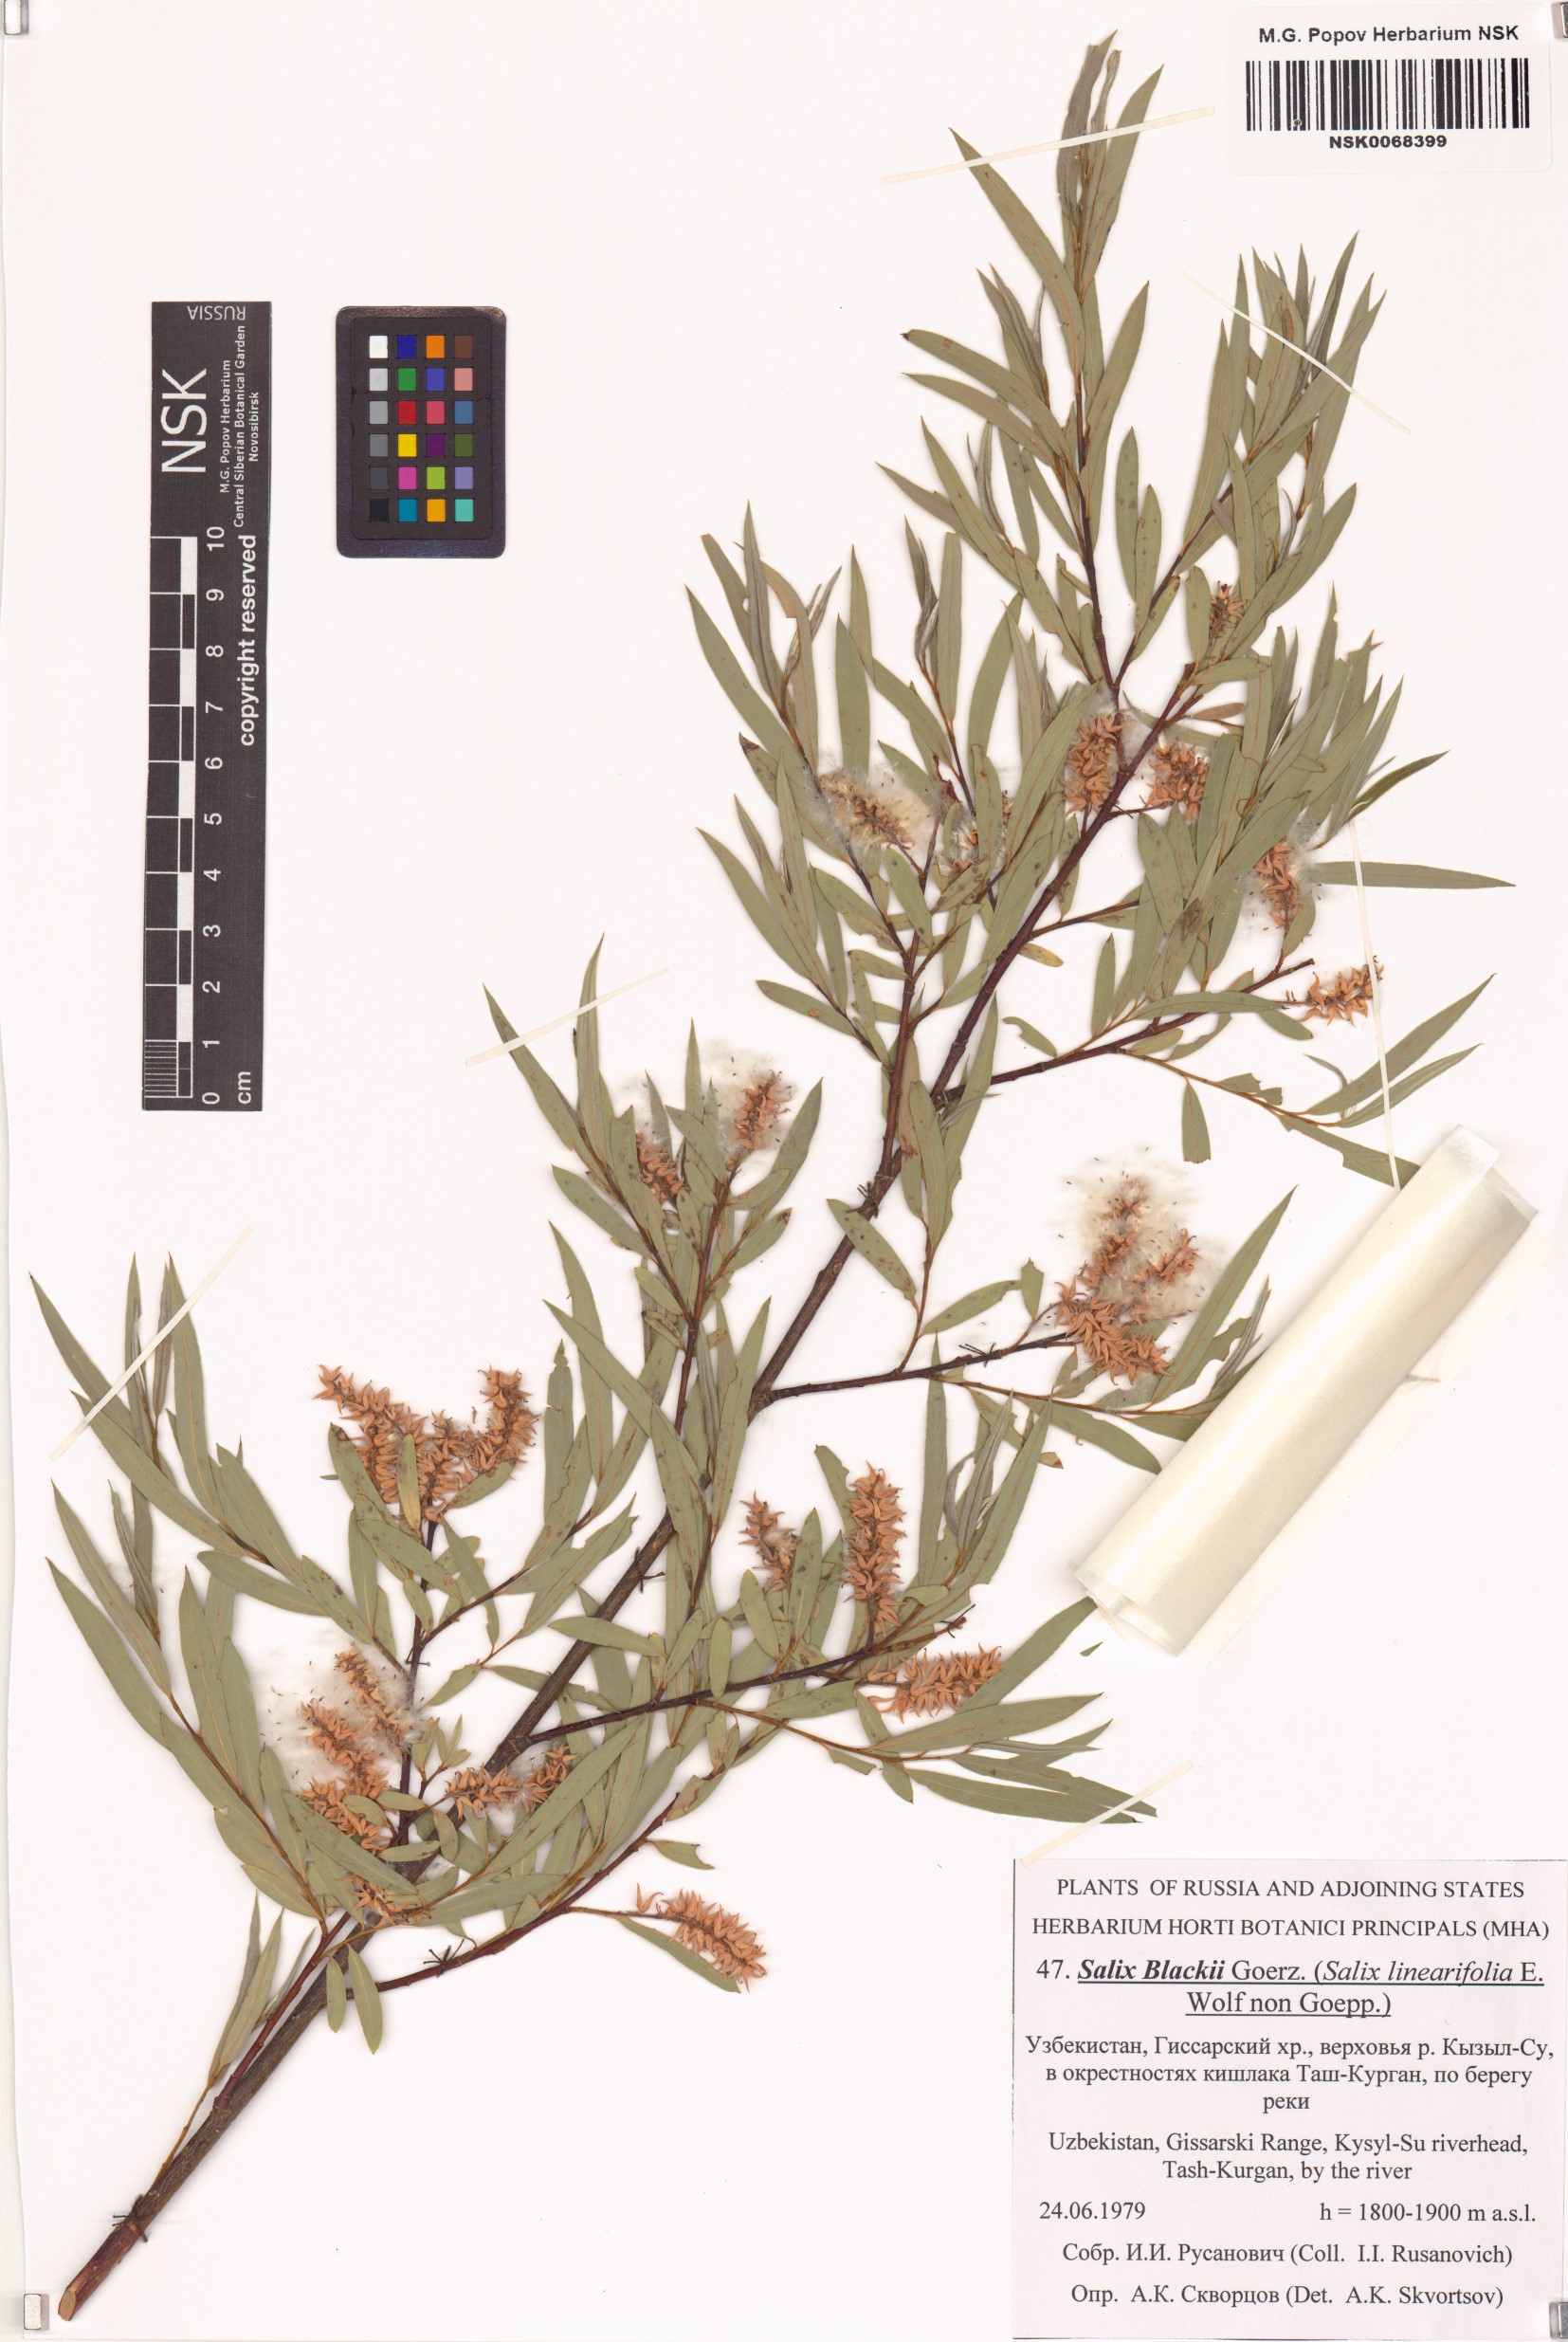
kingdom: Plantae
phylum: Tracheophyta
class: Magnoliopsida
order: Malpighiales
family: Salicaceae
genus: Salix
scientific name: Salix blakii
